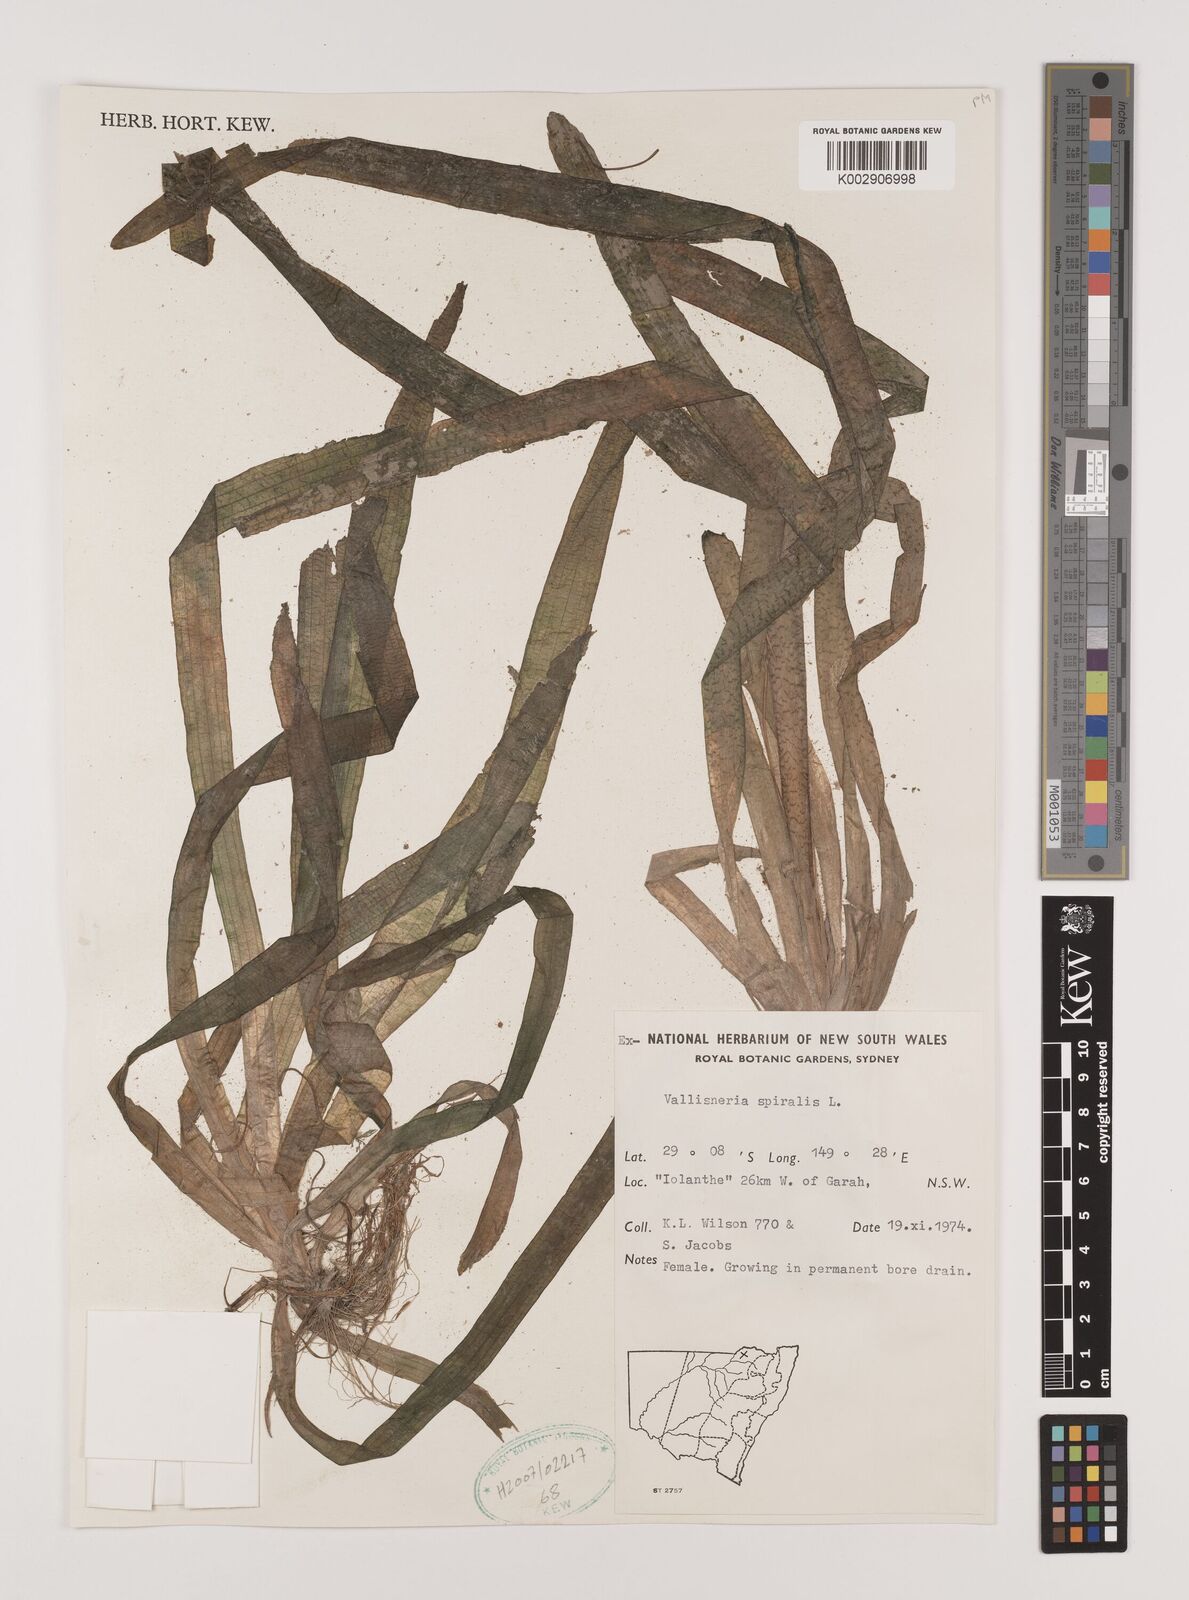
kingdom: Plantae
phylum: Tracheophyta
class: Liliopsida
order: Alismatales
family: Hydrocharitaceae
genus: Vallisneria
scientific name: Vallisneria spiralis
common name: Tapegrass
